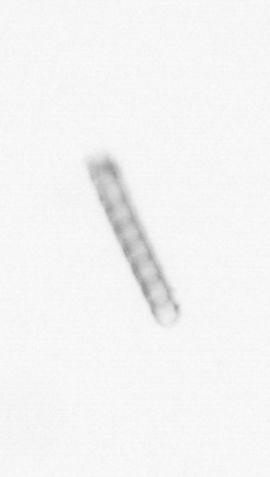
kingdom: Chromista
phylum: Ochrophyta
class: Bacillariophyceae
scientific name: Bacillariophyceae
